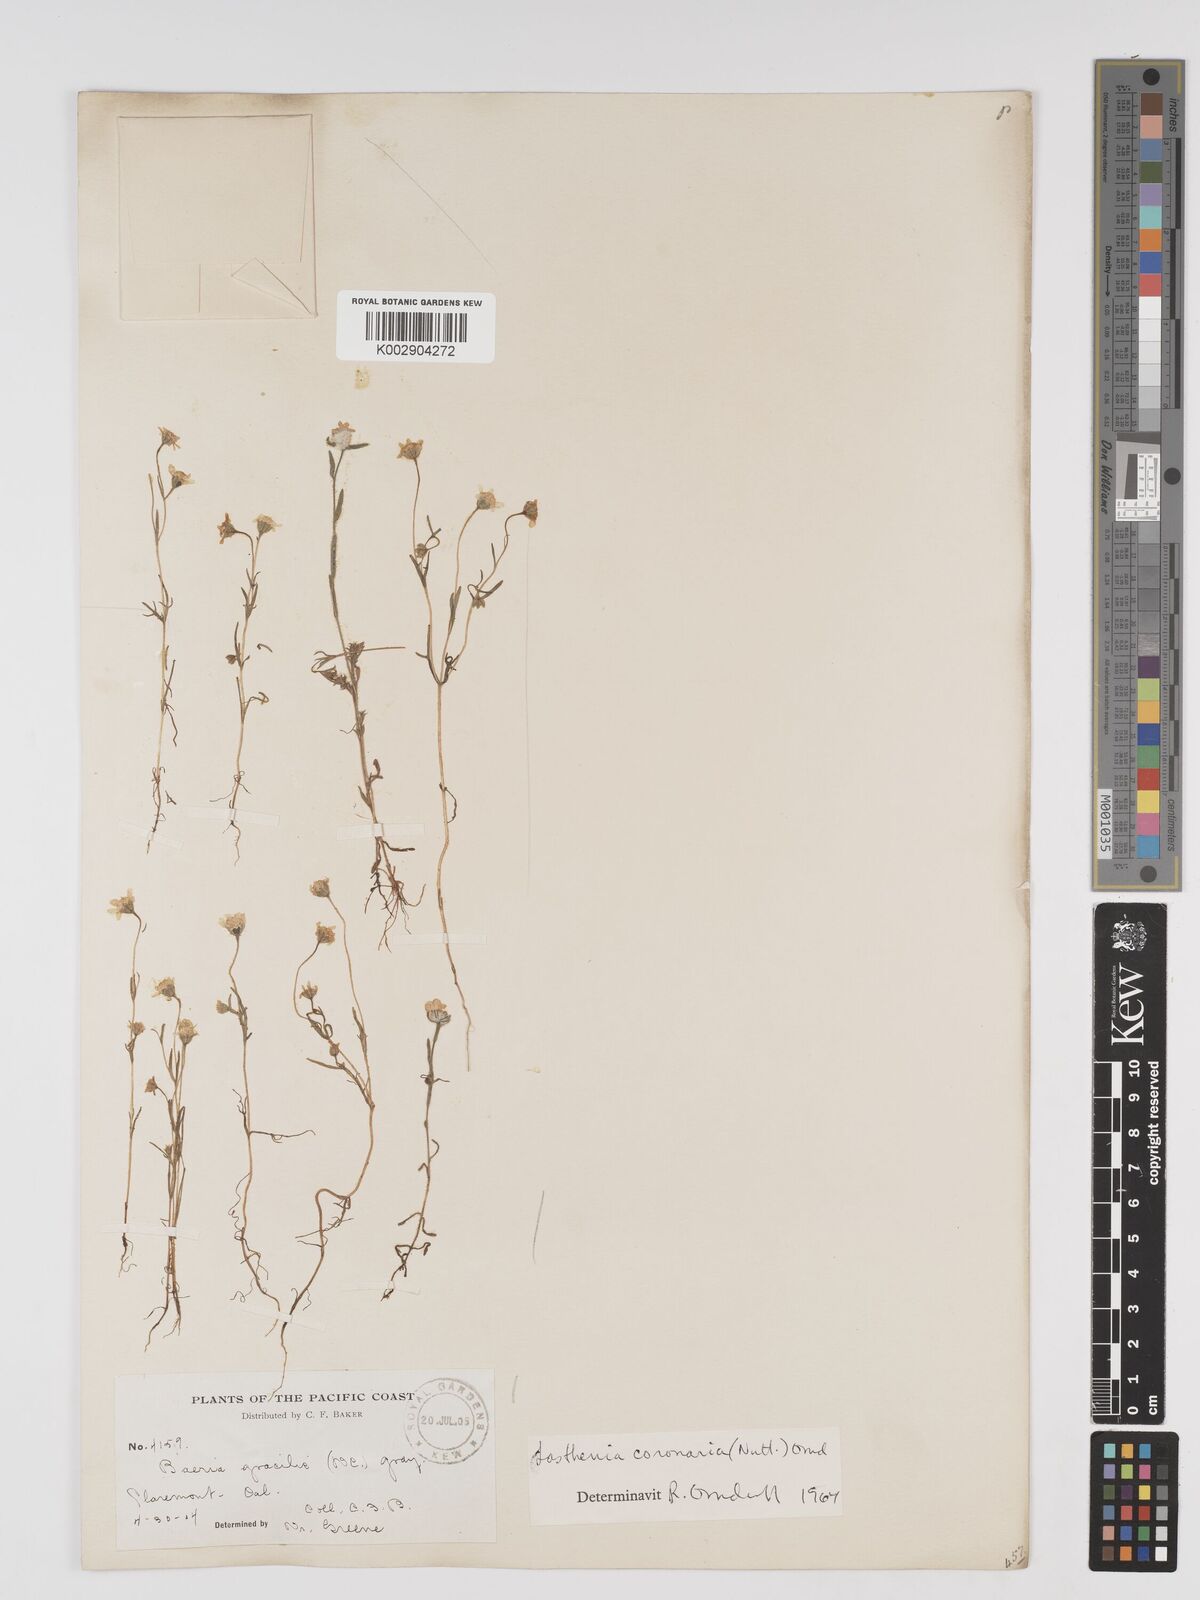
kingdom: Plantae
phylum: Tracheophyta
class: Magnoliopsida
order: Asterales
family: Asteraceae
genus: Lasthenia
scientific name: Lasthenia coronaria
